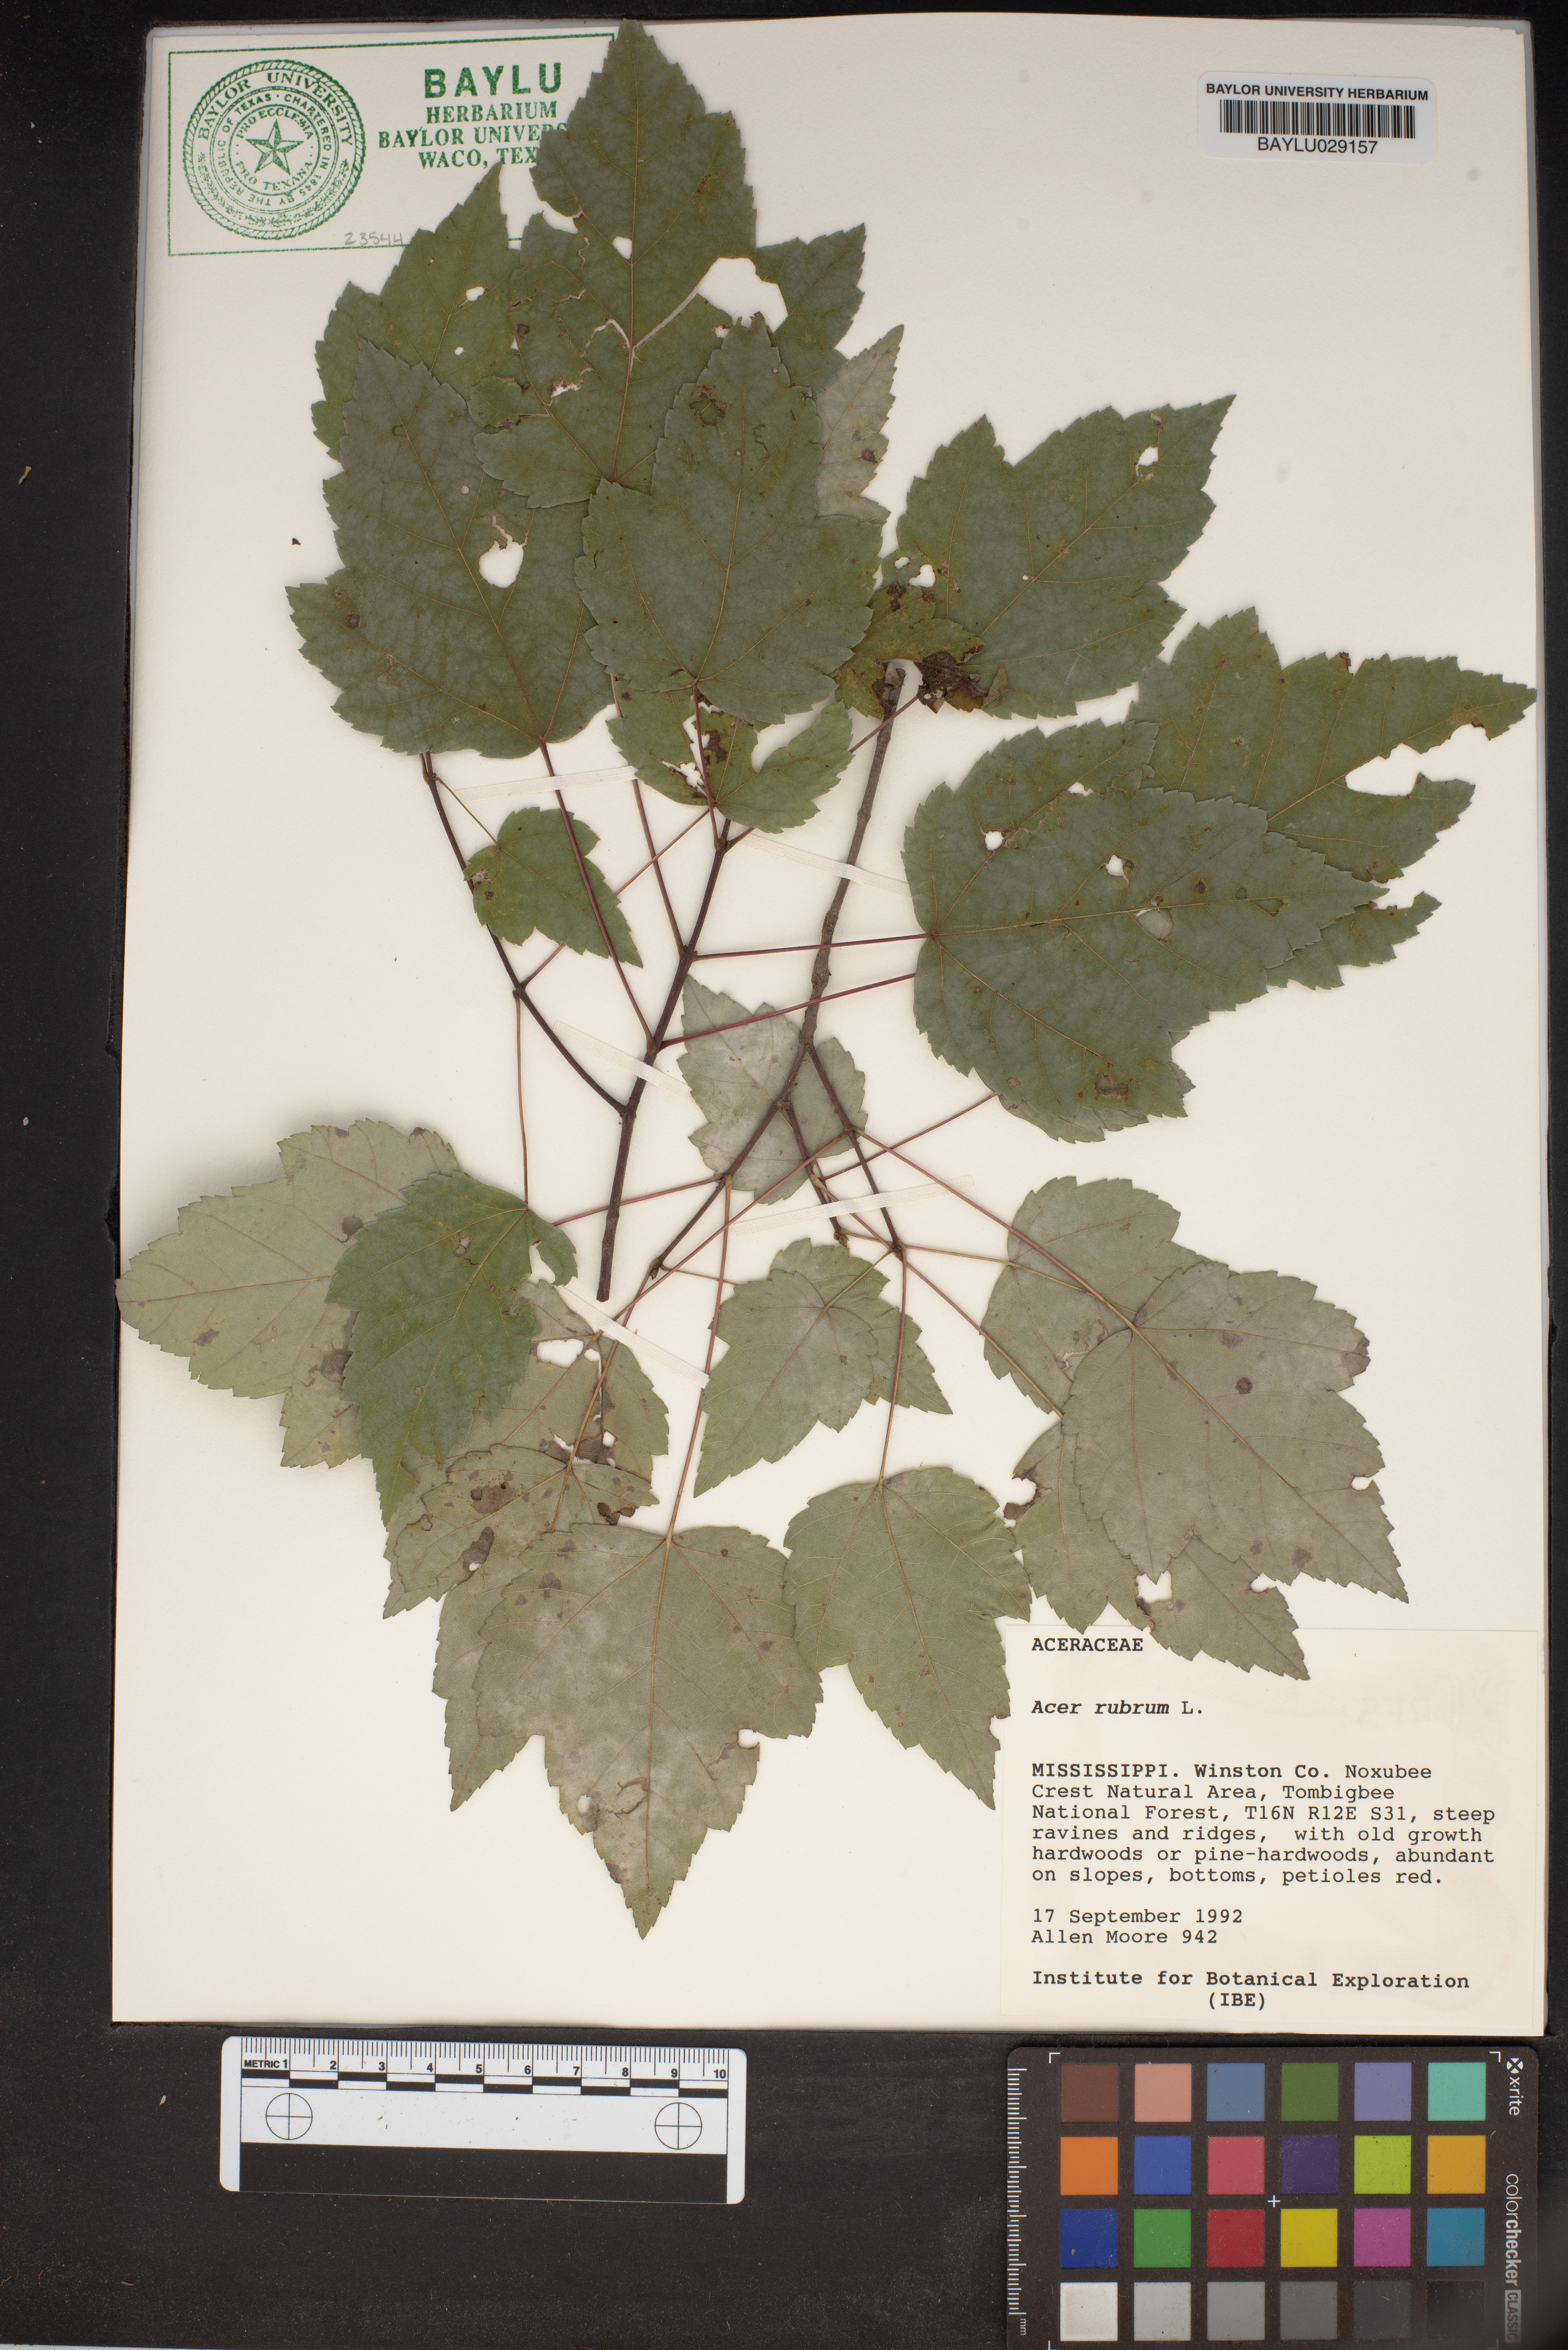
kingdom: Plantae
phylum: Tracheophyta
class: Magnoliopsida
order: Sapindales
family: Sapindaceae
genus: Acer
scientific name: Acer rubrum
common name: Red maple
